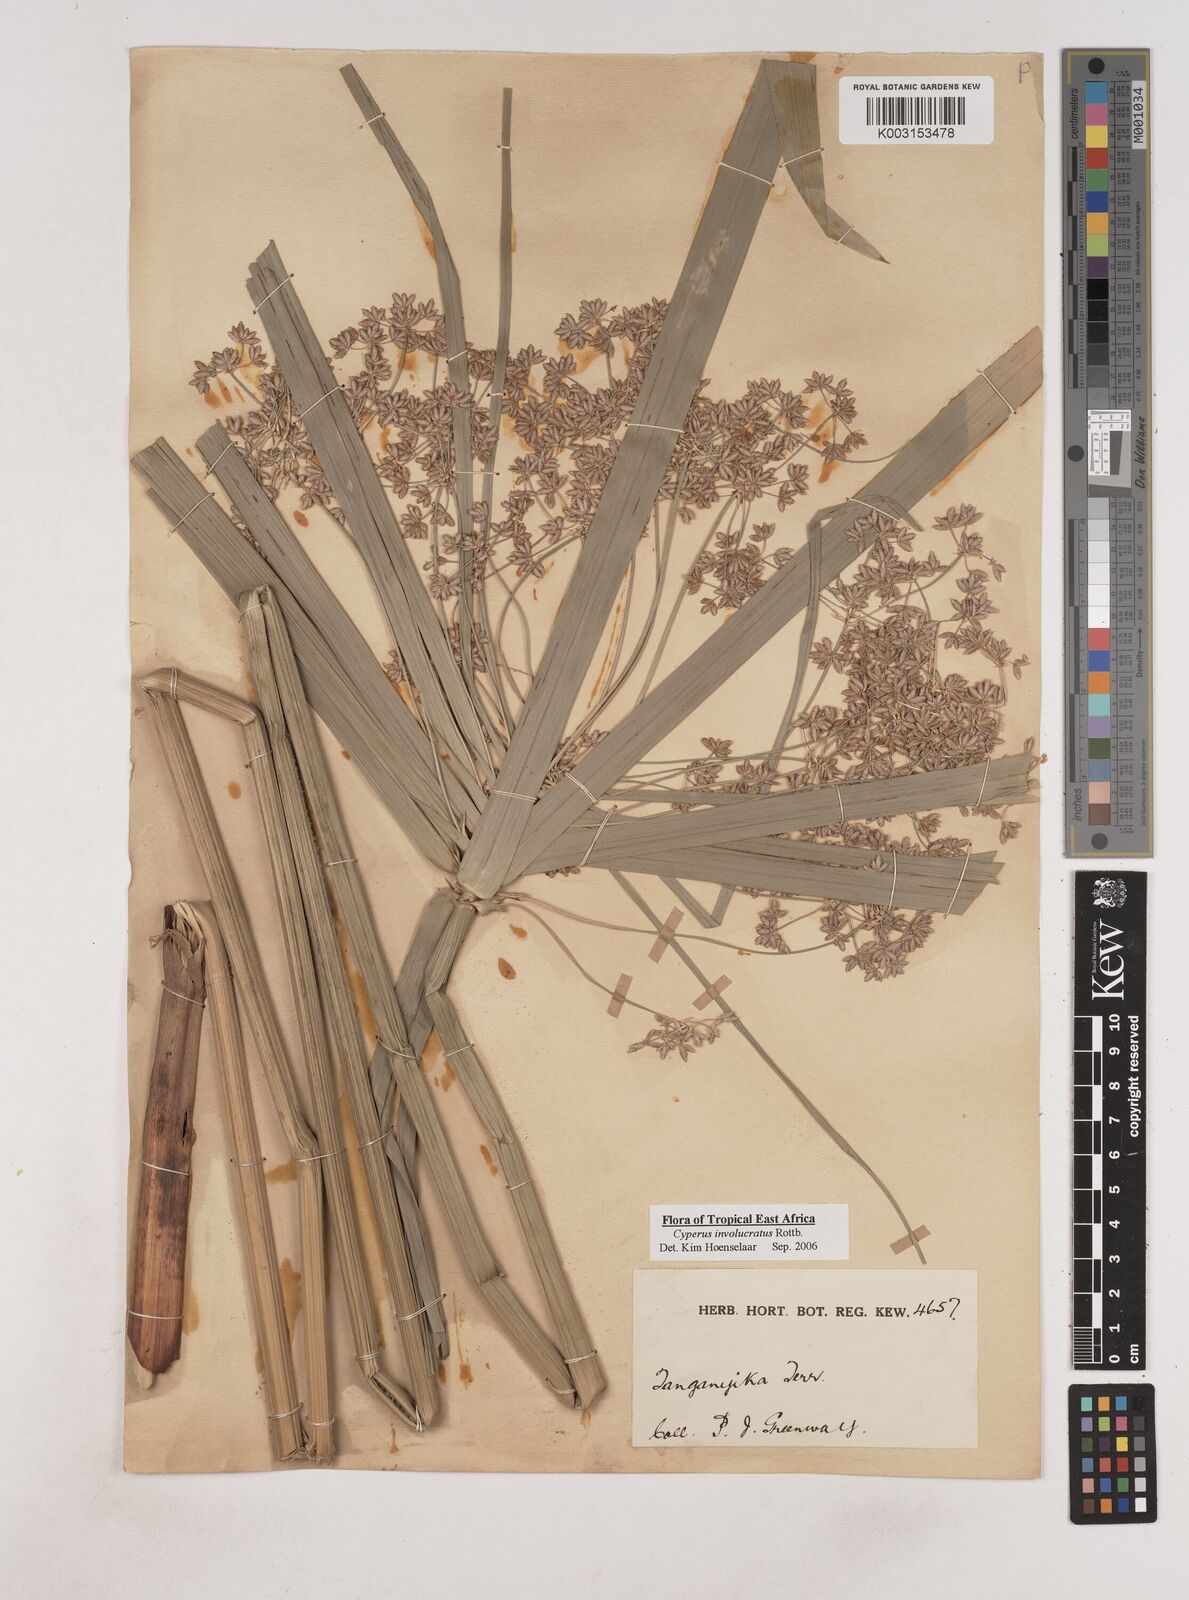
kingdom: Plantae
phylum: Tracheophyta
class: Liliopsida
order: Poales
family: Cyperaceae
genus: Cyperus
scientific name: Cyperus alternifolius
